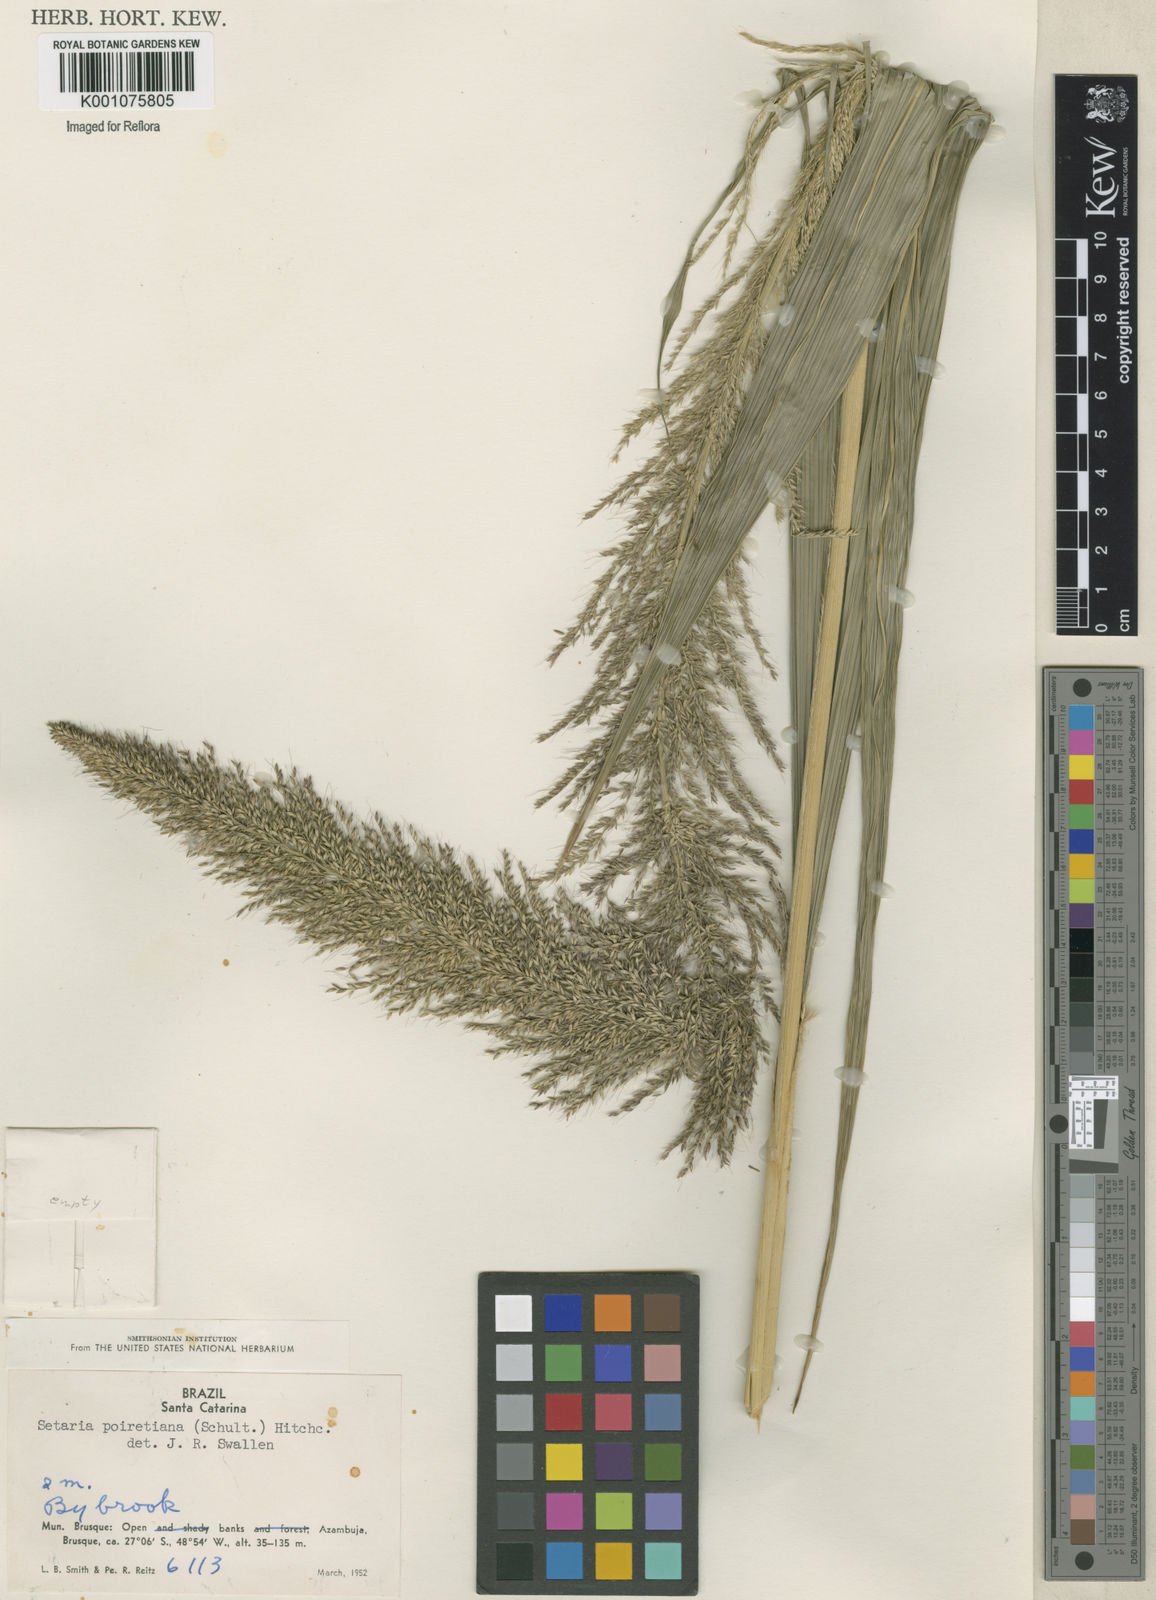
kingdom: Plantae
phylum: Tracheophyta
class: Liliopsida
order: Poales
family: Poaceae
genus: Setaria
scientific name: Setaria megaphylla
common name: Bigleaf bristlegrass
